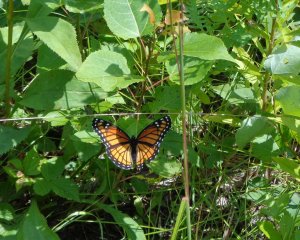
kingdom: Animalia
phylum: Arthropoda
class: Insecta
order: Lepidoptera
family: Nymphalidae
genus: Limenitis
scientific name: Limenitis archippus
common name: Viceroy
